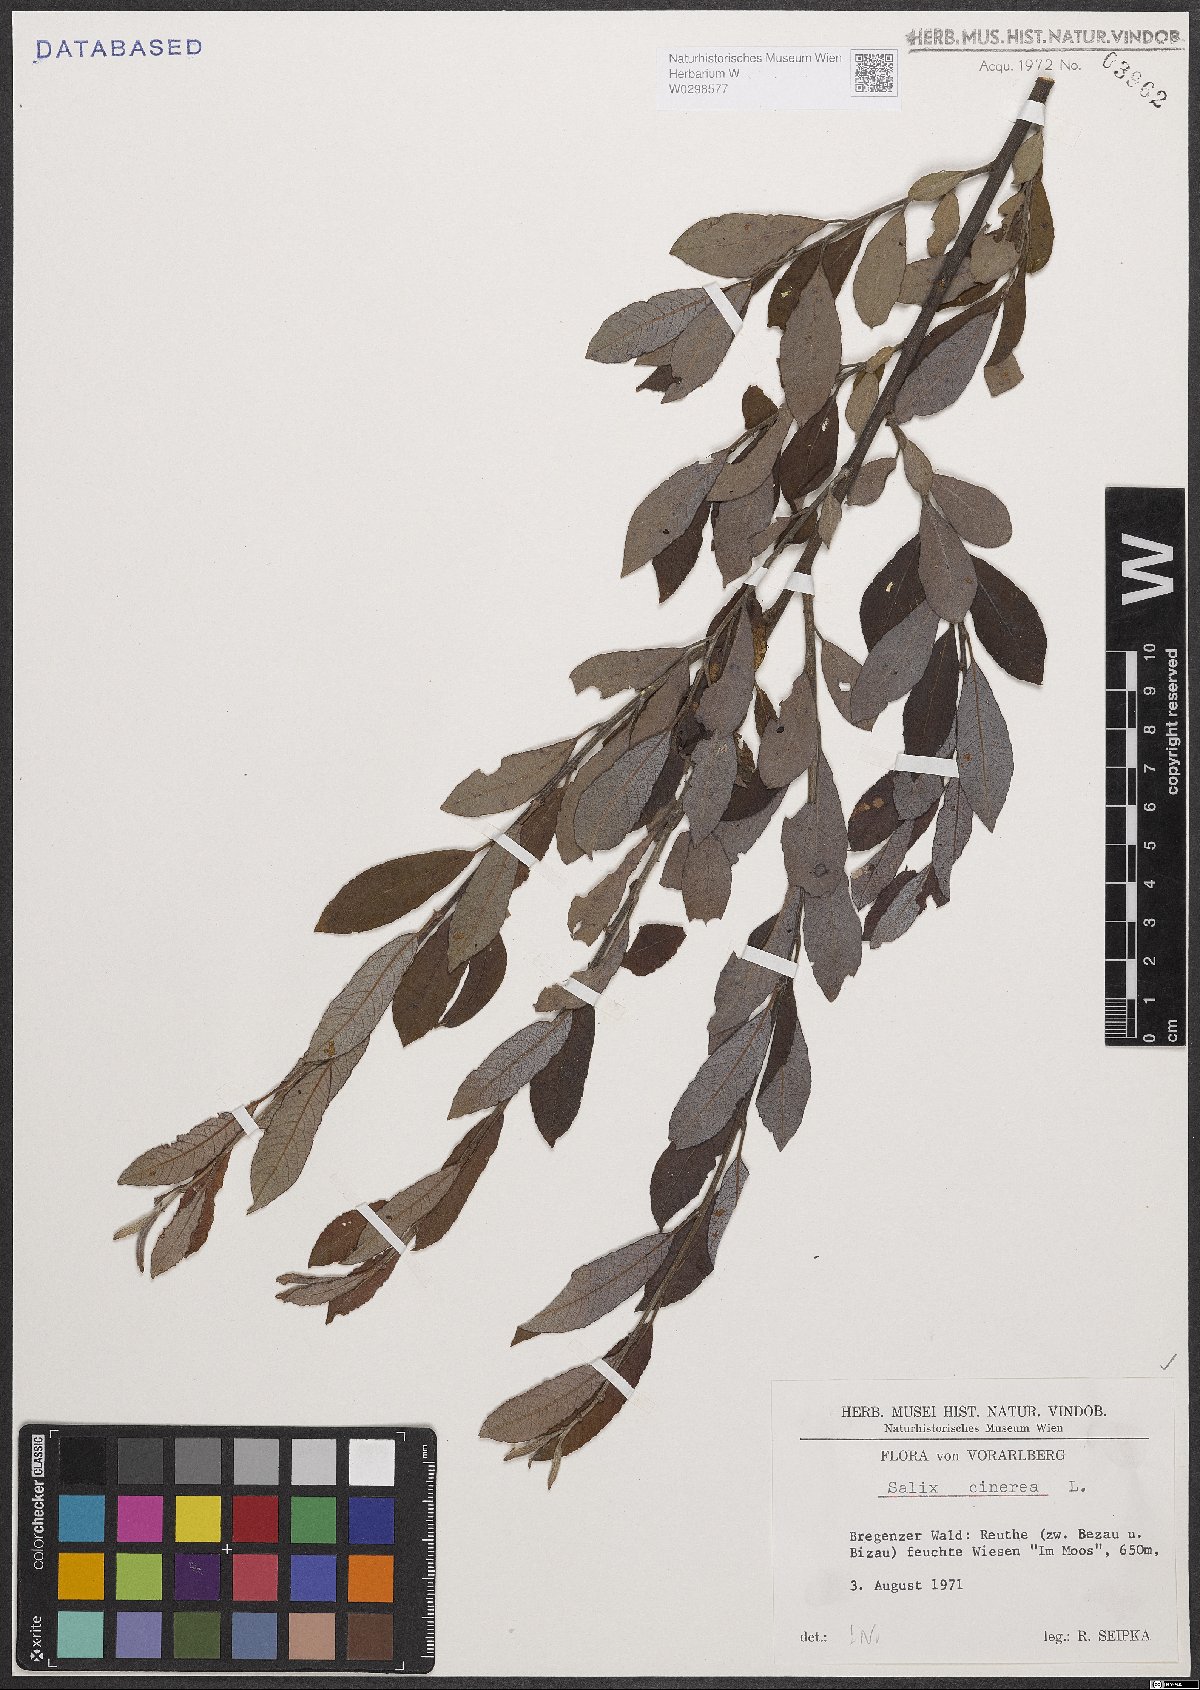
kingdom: Plantae
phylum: Tracheophyta
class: Magnoliopsida
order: Malpighiales
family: Salicaceae
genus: Salix
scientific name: Salix cinerea
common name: Common sallow
